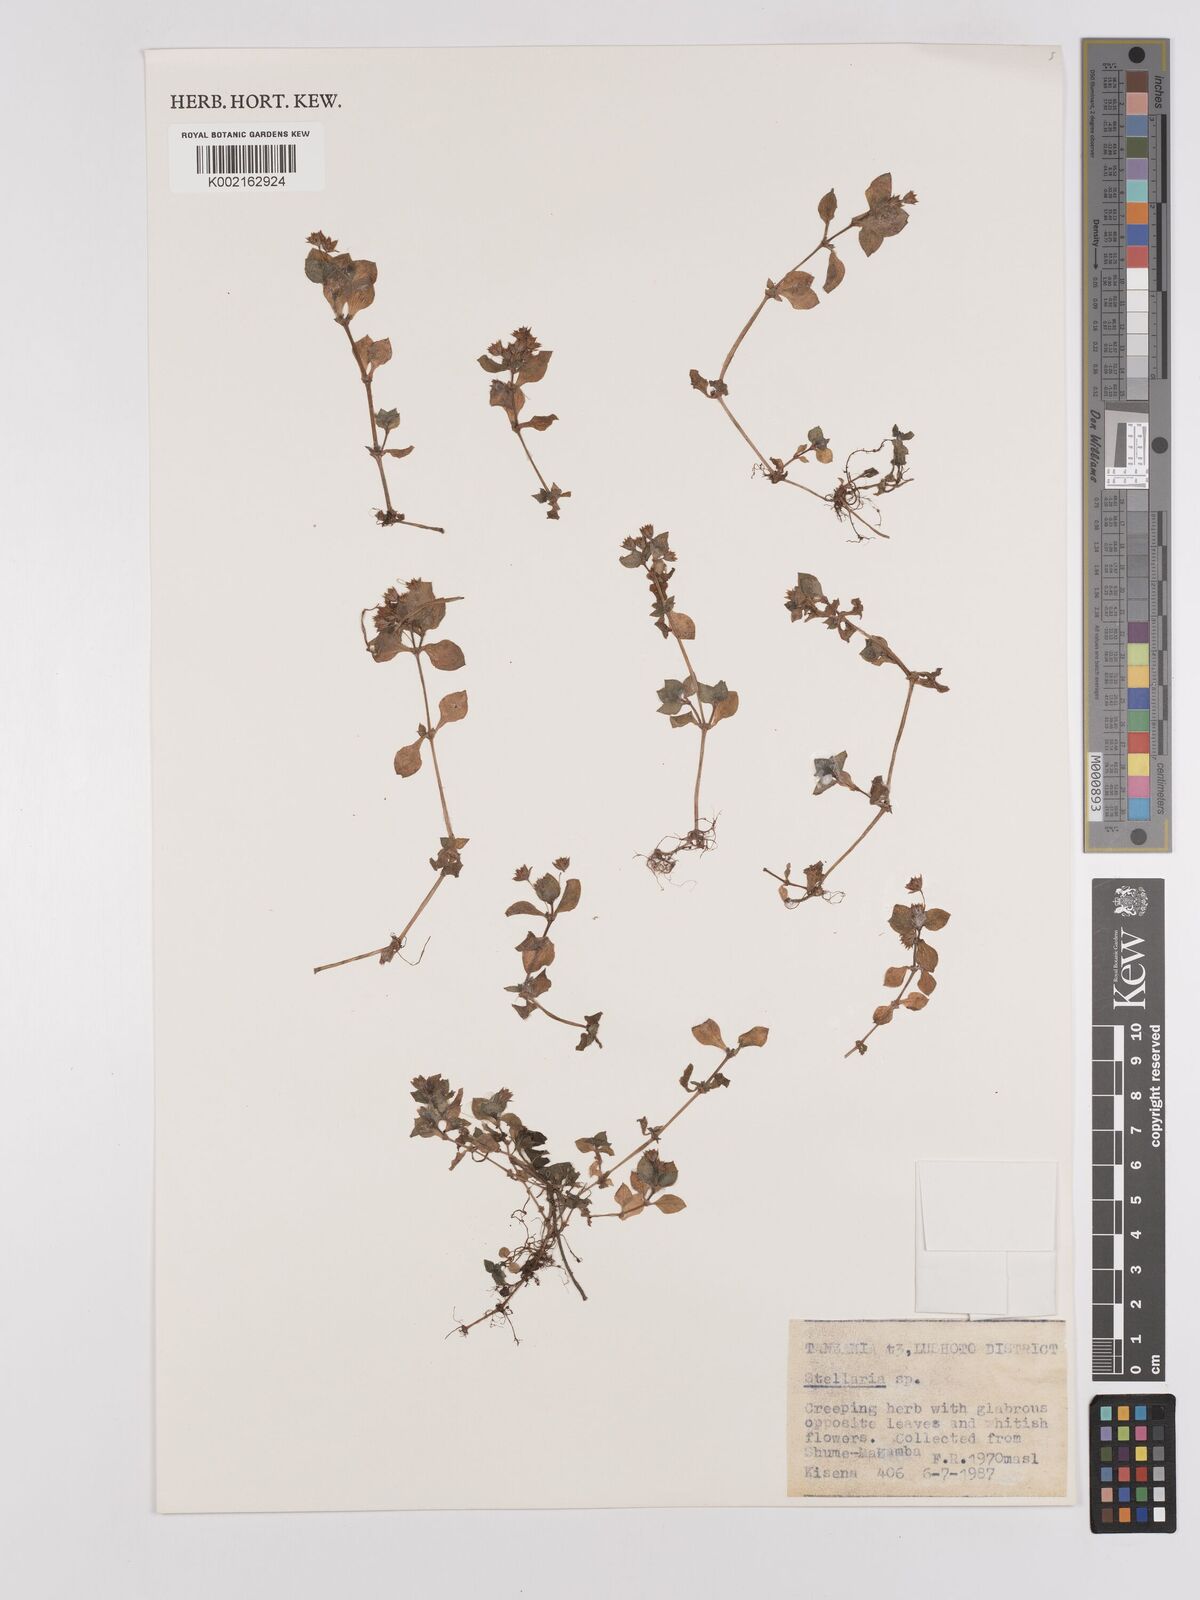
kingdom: Plantae
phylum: Tracheophyta
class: Magnoliopsida
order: Saxifragales
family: Crassulaceae
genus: Crassula
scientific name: Crassula alsinoides
